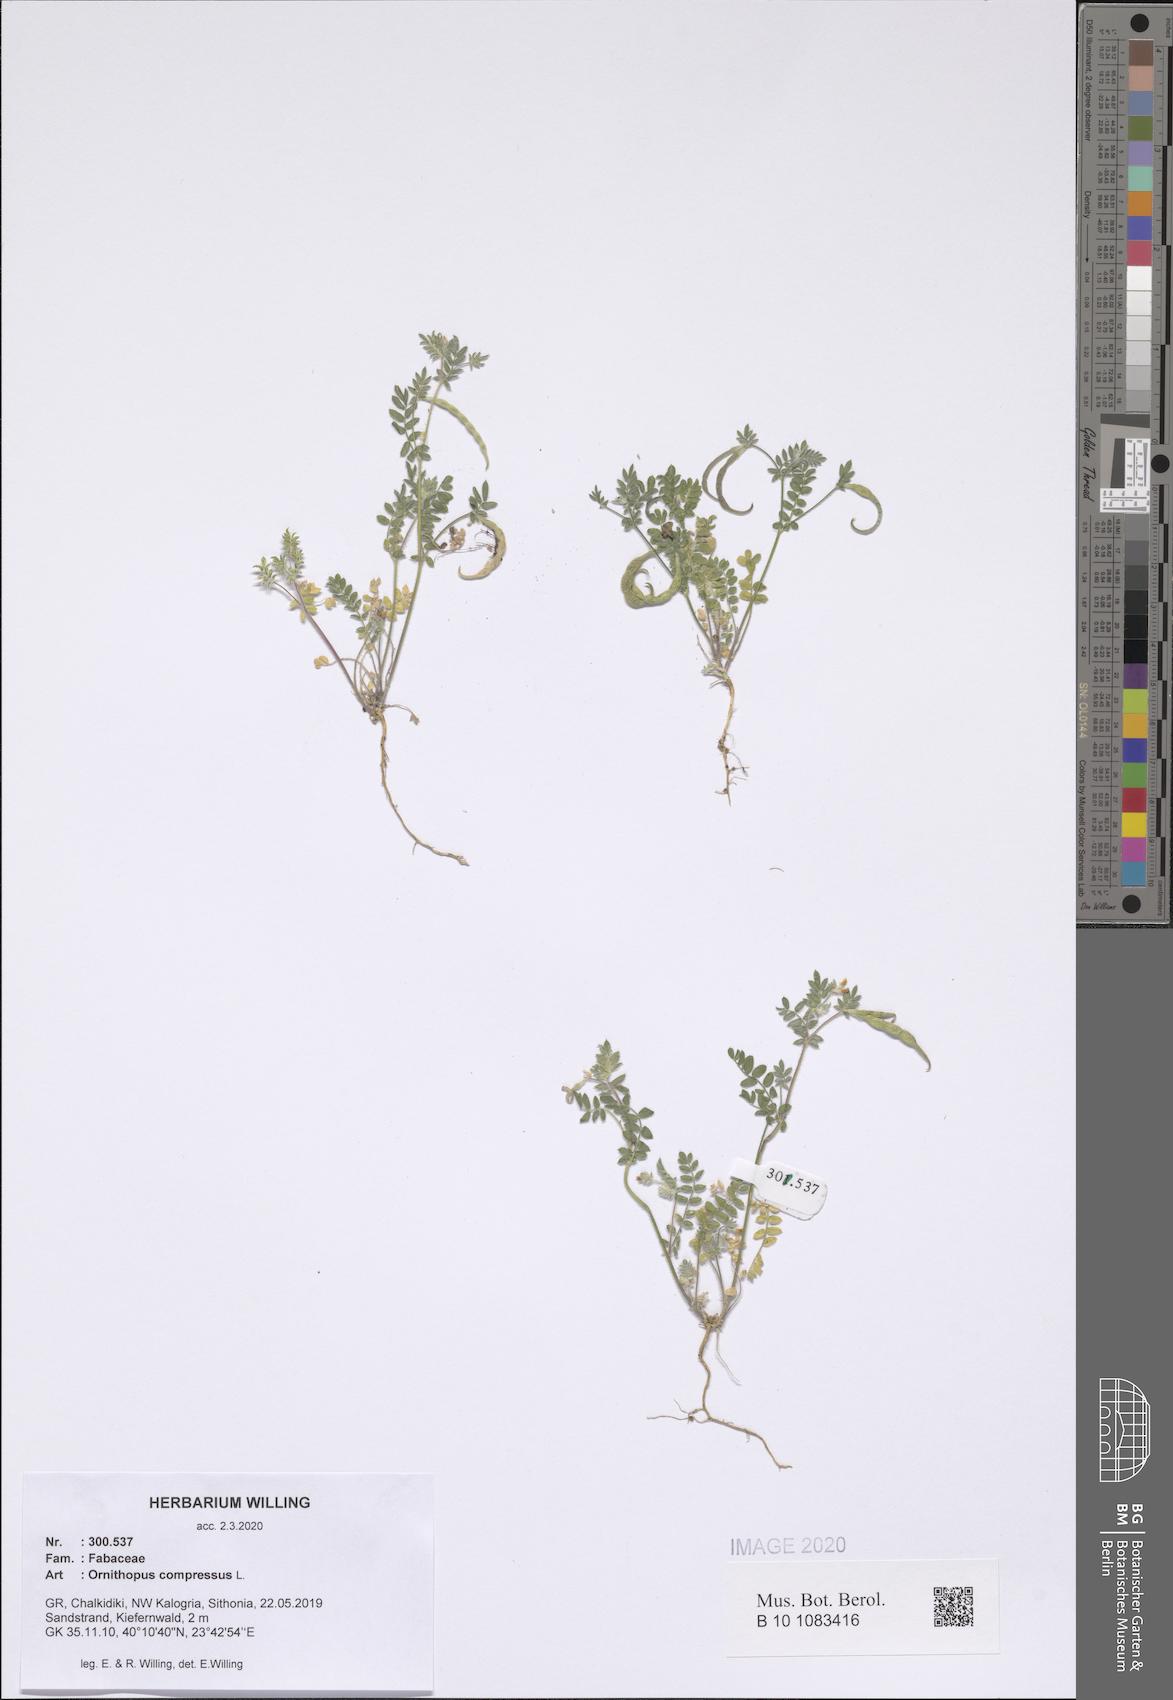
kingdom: Plantae
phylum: Tracheophyta
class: Magnoliopsida
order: Fabales
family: Fabaceae
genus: Ornithopus
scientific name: Ornithopus compressus
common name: Yellow serradella
